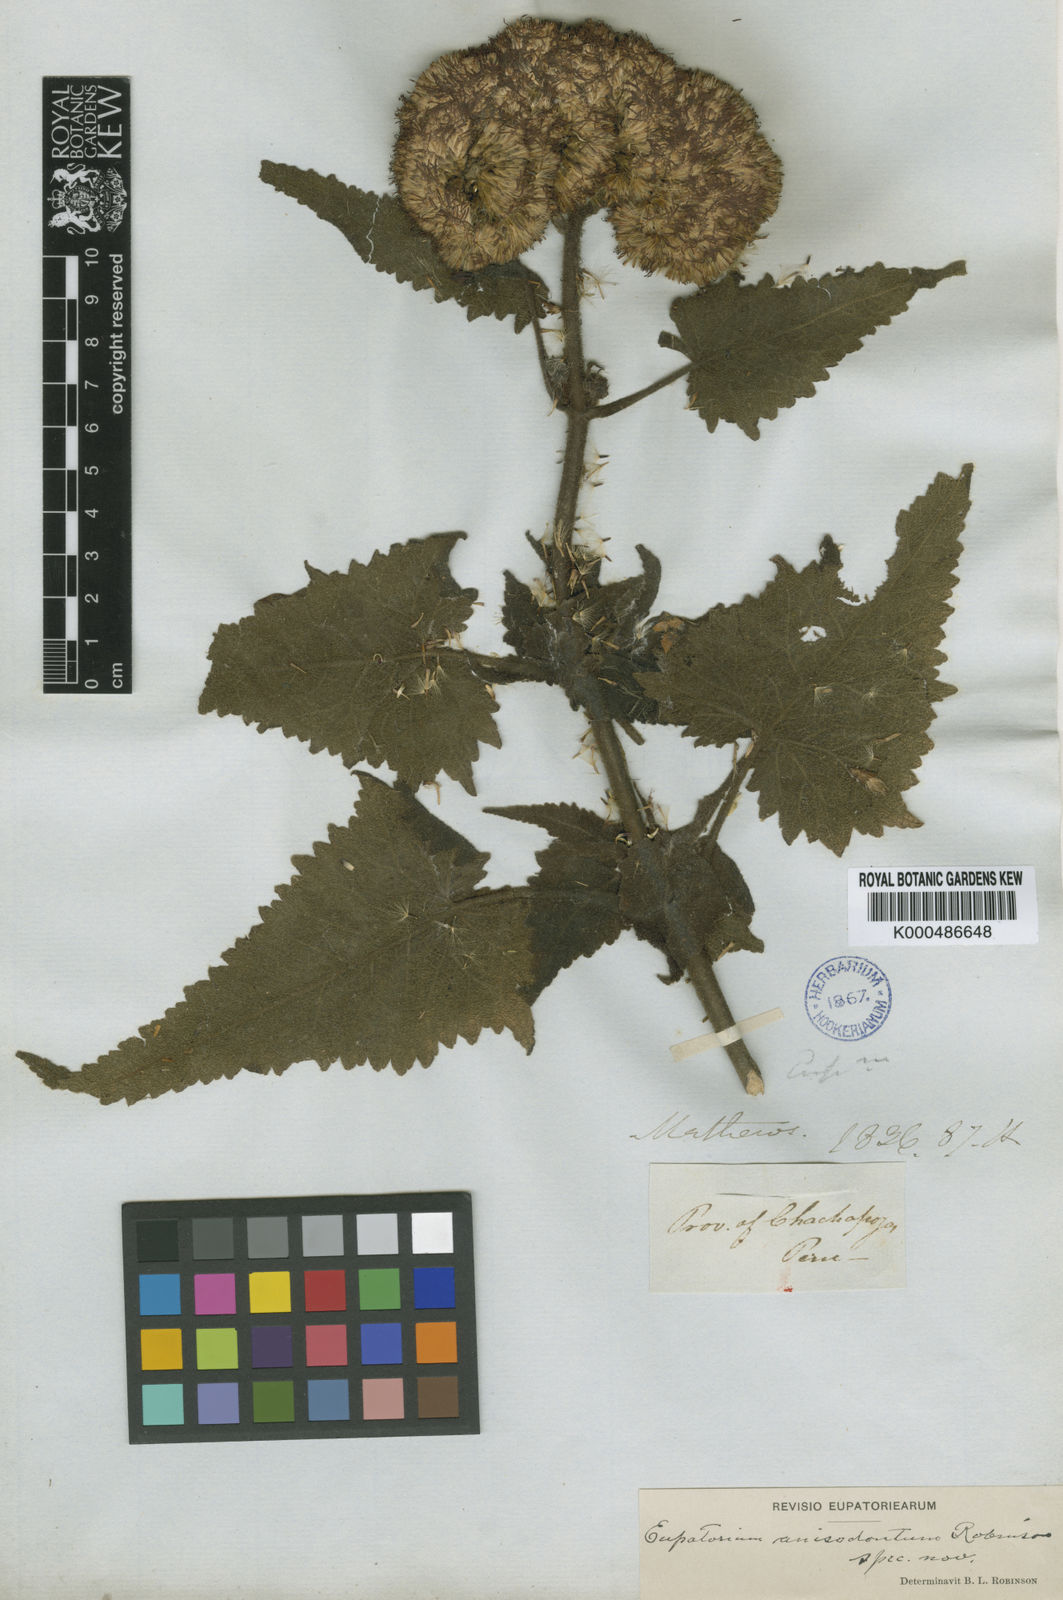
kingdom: Plantae
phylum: Tracheophyta
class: Magnoliopsida
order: Asterales
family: Asteraceae
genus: Aristeguietia
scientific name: Aristeguietia anisodonta
